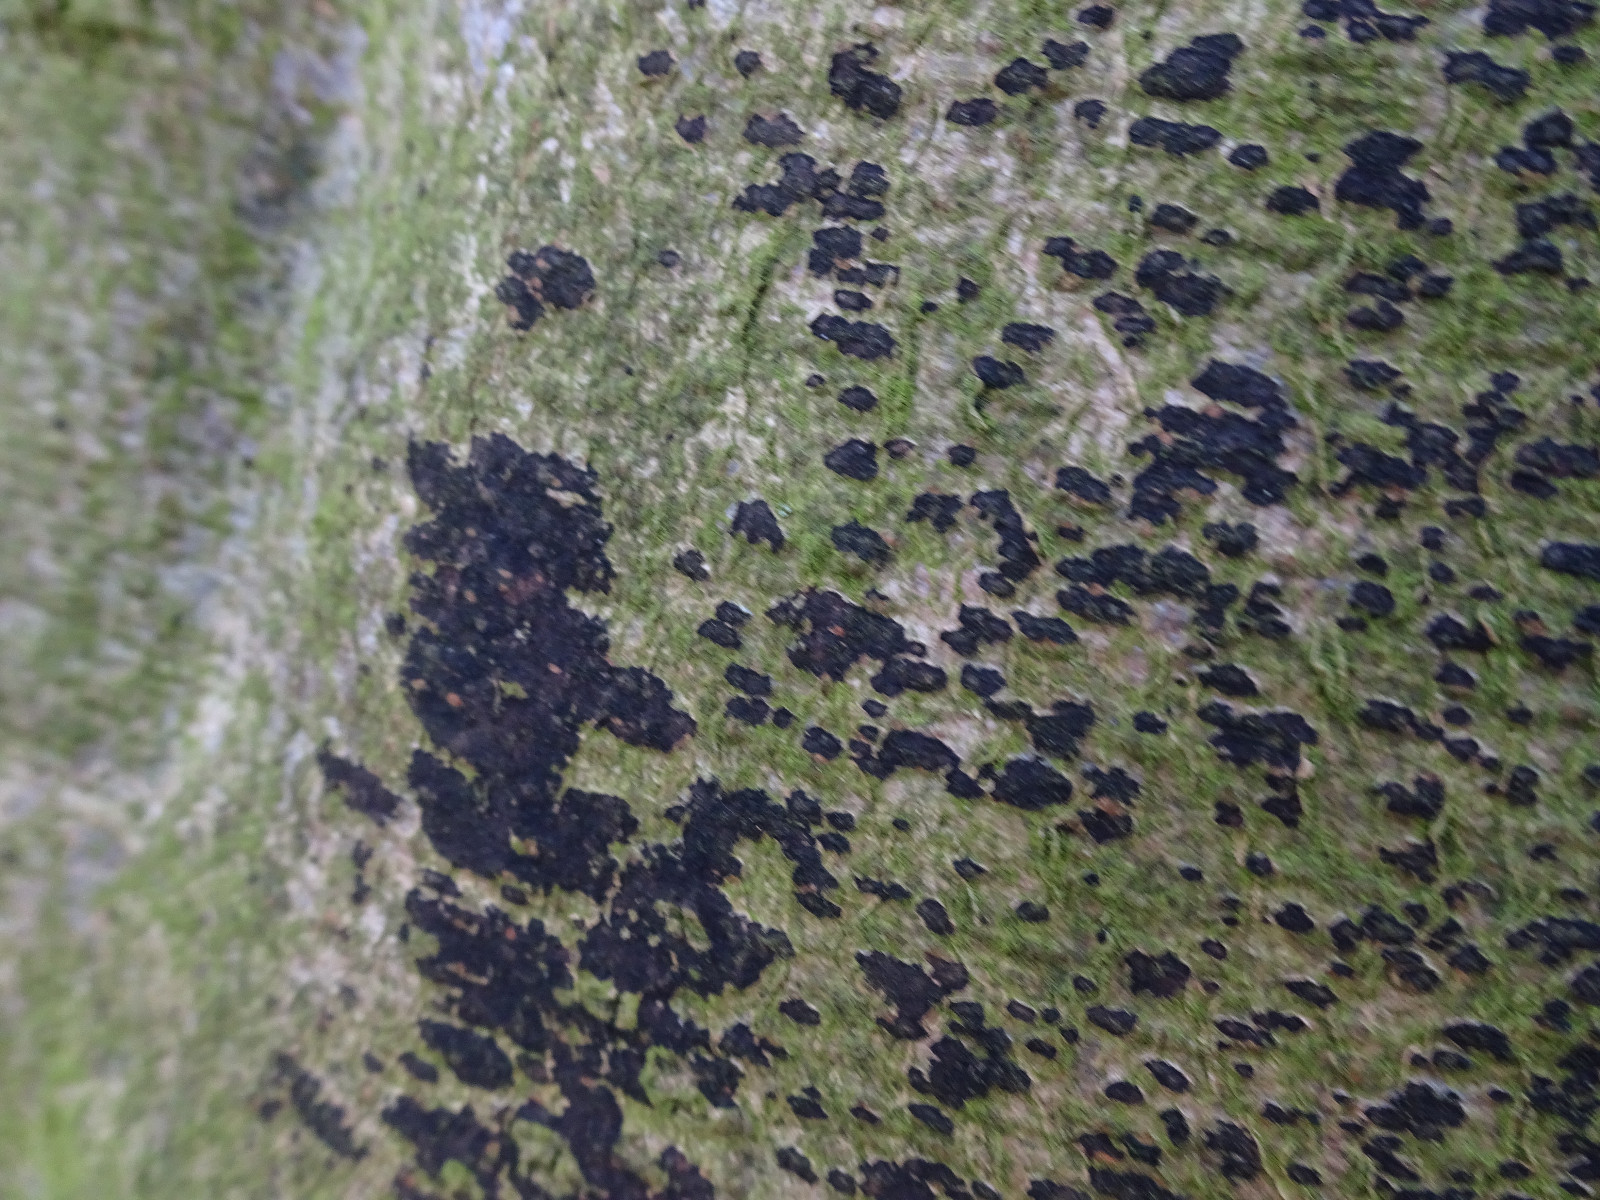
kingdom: Fungi
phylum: Ascomycota
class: Leotiomycetes
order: Rhytismatales
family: Ascodichaenaceae
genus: Ascodichaena
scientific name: Ascodichaena rugosa
